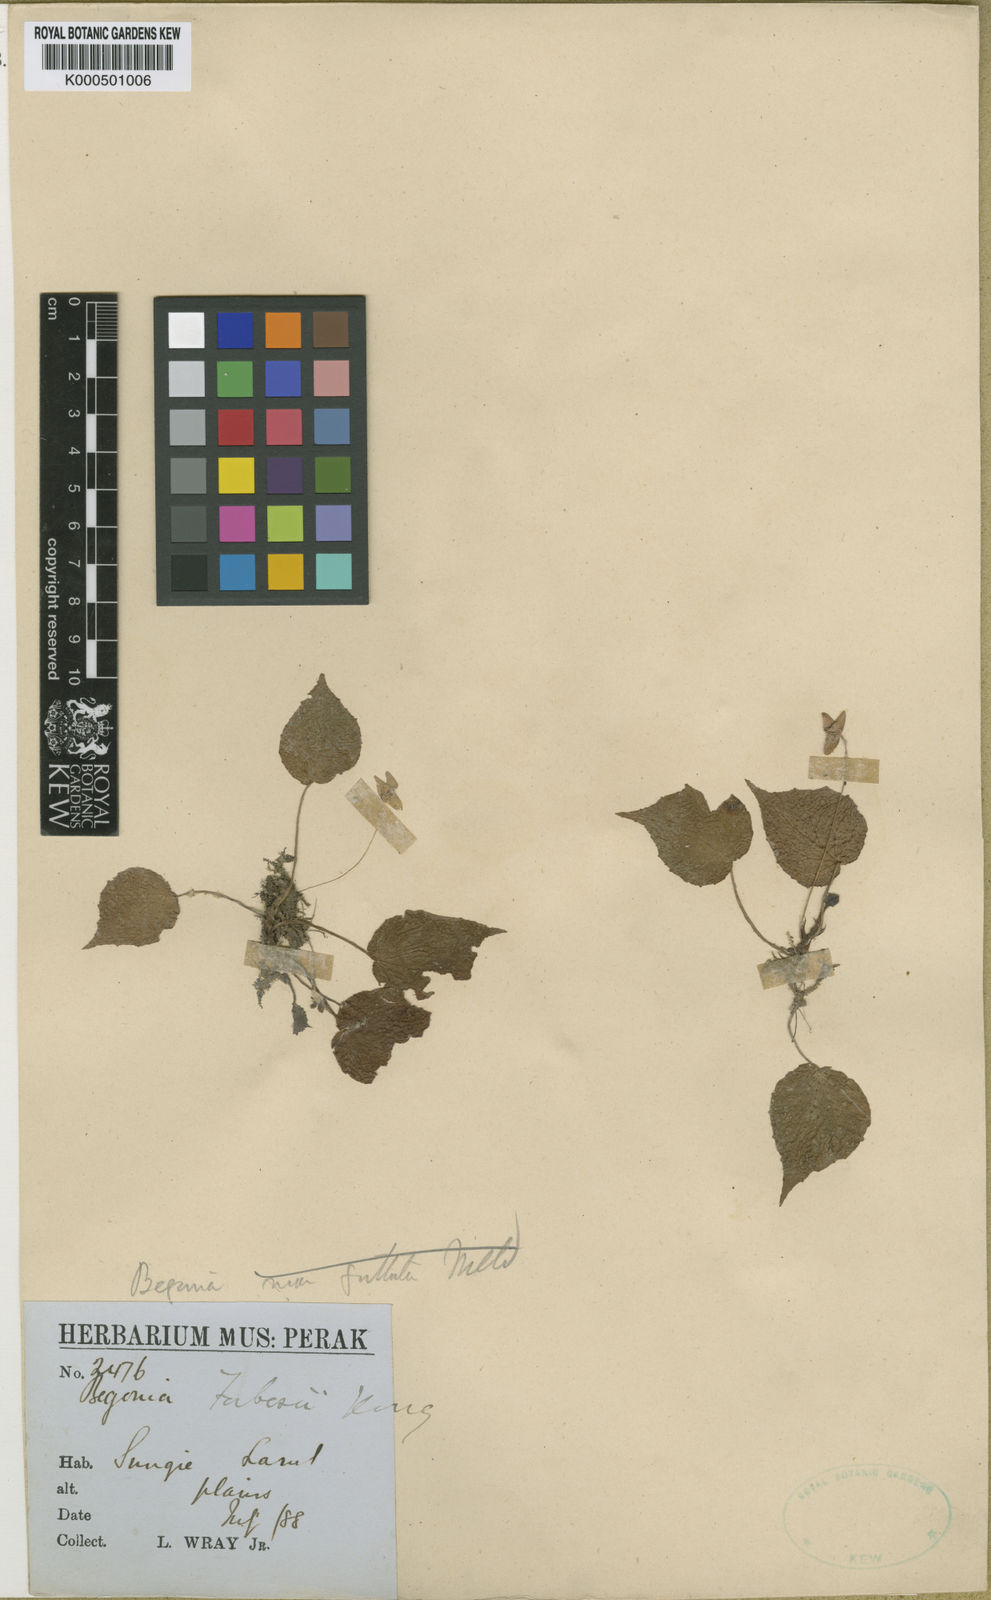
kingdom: Plantae
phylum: Tracheophyta
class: Magnoliopsida
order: Cucurbitales
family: Begoniaceae
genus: Begonia
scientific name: Begonia forbesii
